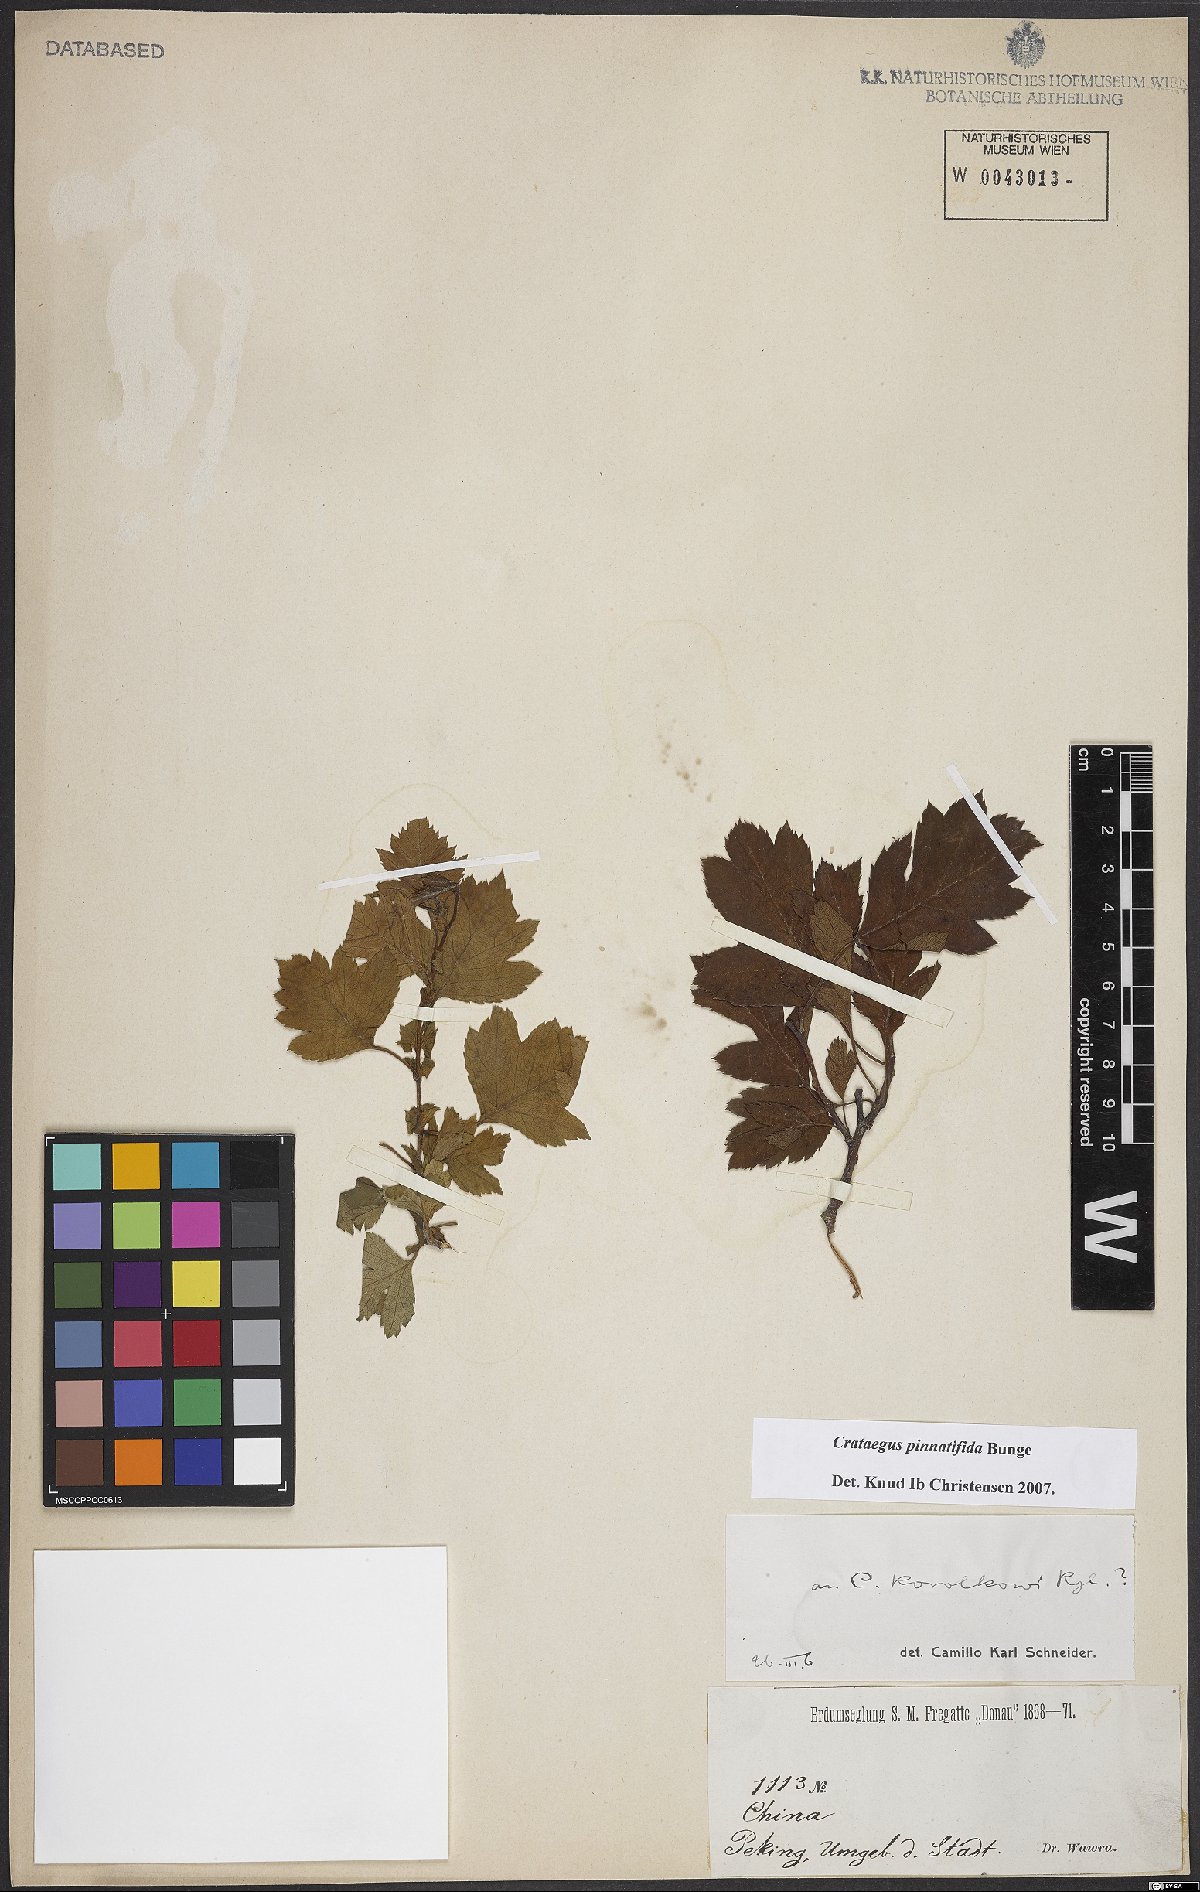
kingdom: Plantae
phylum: Tracheophyta
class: Magnoliopsida
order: Rosales
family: Rosaceae
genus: Crataegus
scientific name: Crataegus pinnatifida
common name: Chinese haw
